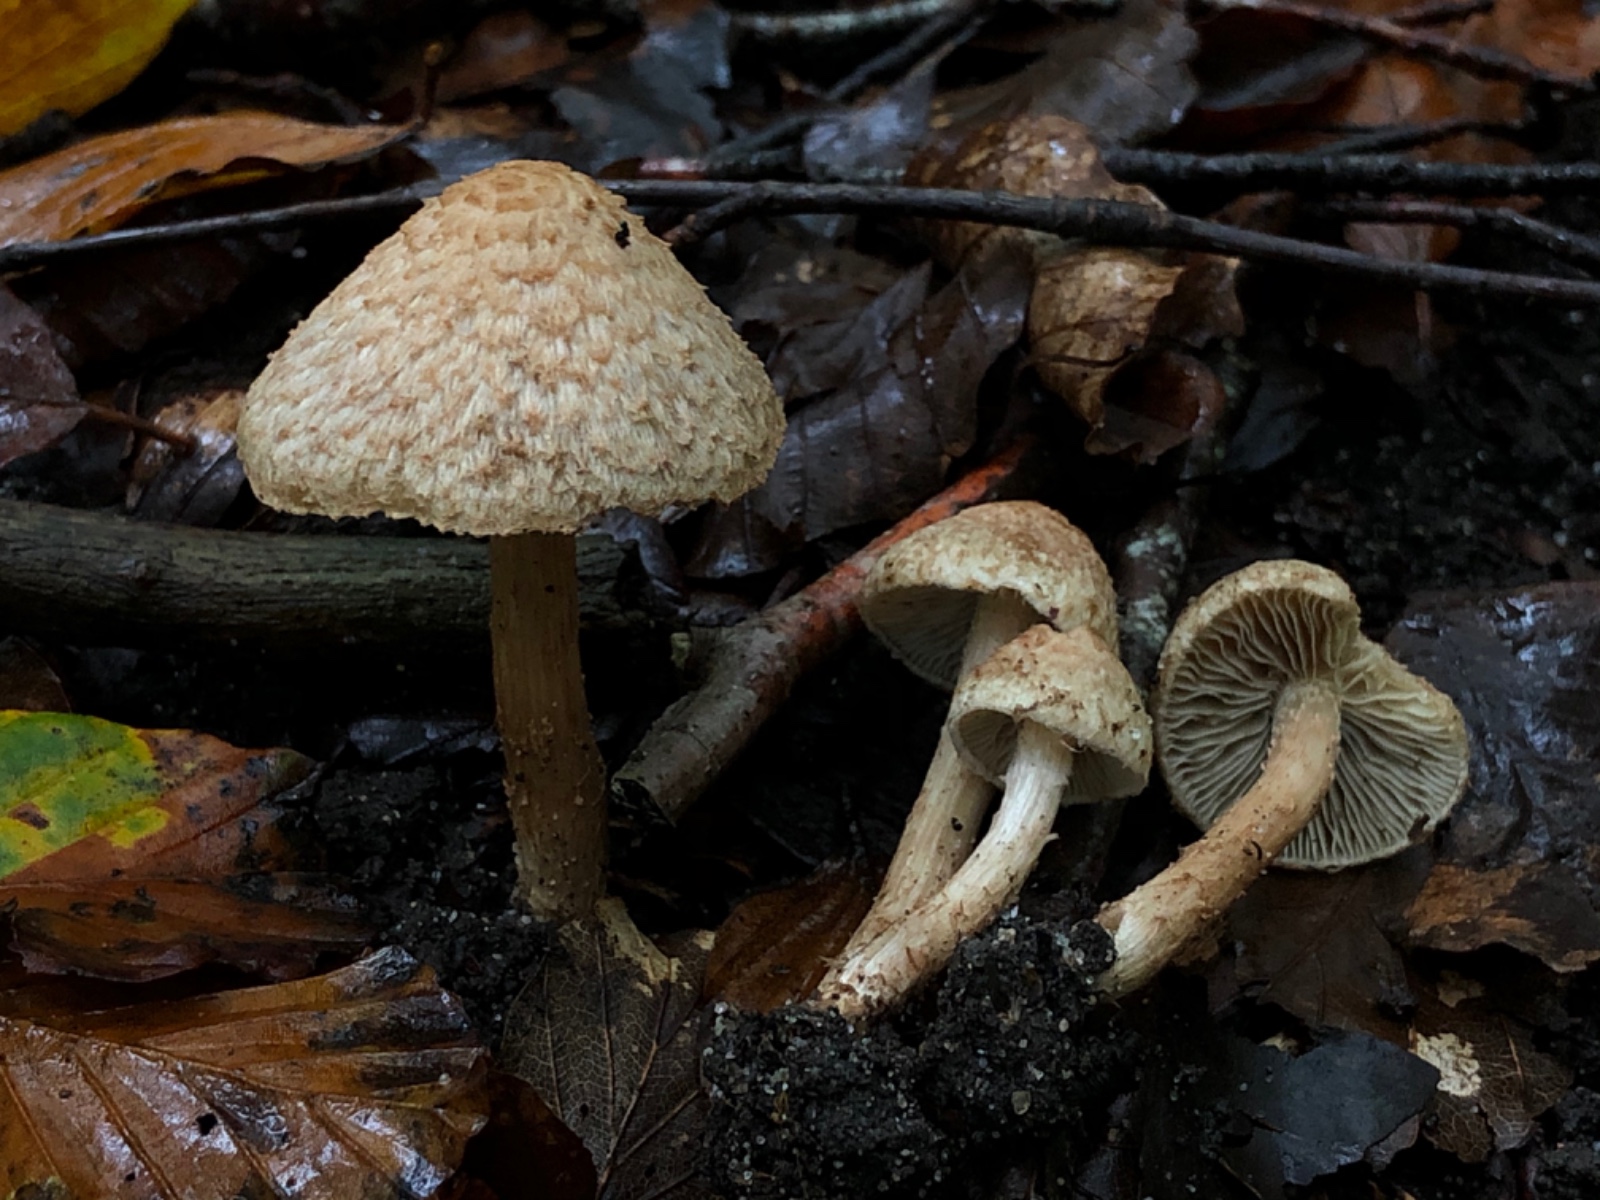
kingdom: Fungi
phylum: Basidiomycota
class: Agaricomycetes
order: Agaricales
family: Inocybaceae
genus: Inosperma
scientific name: Inosperma bongardii
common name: Bongards trævlhat
